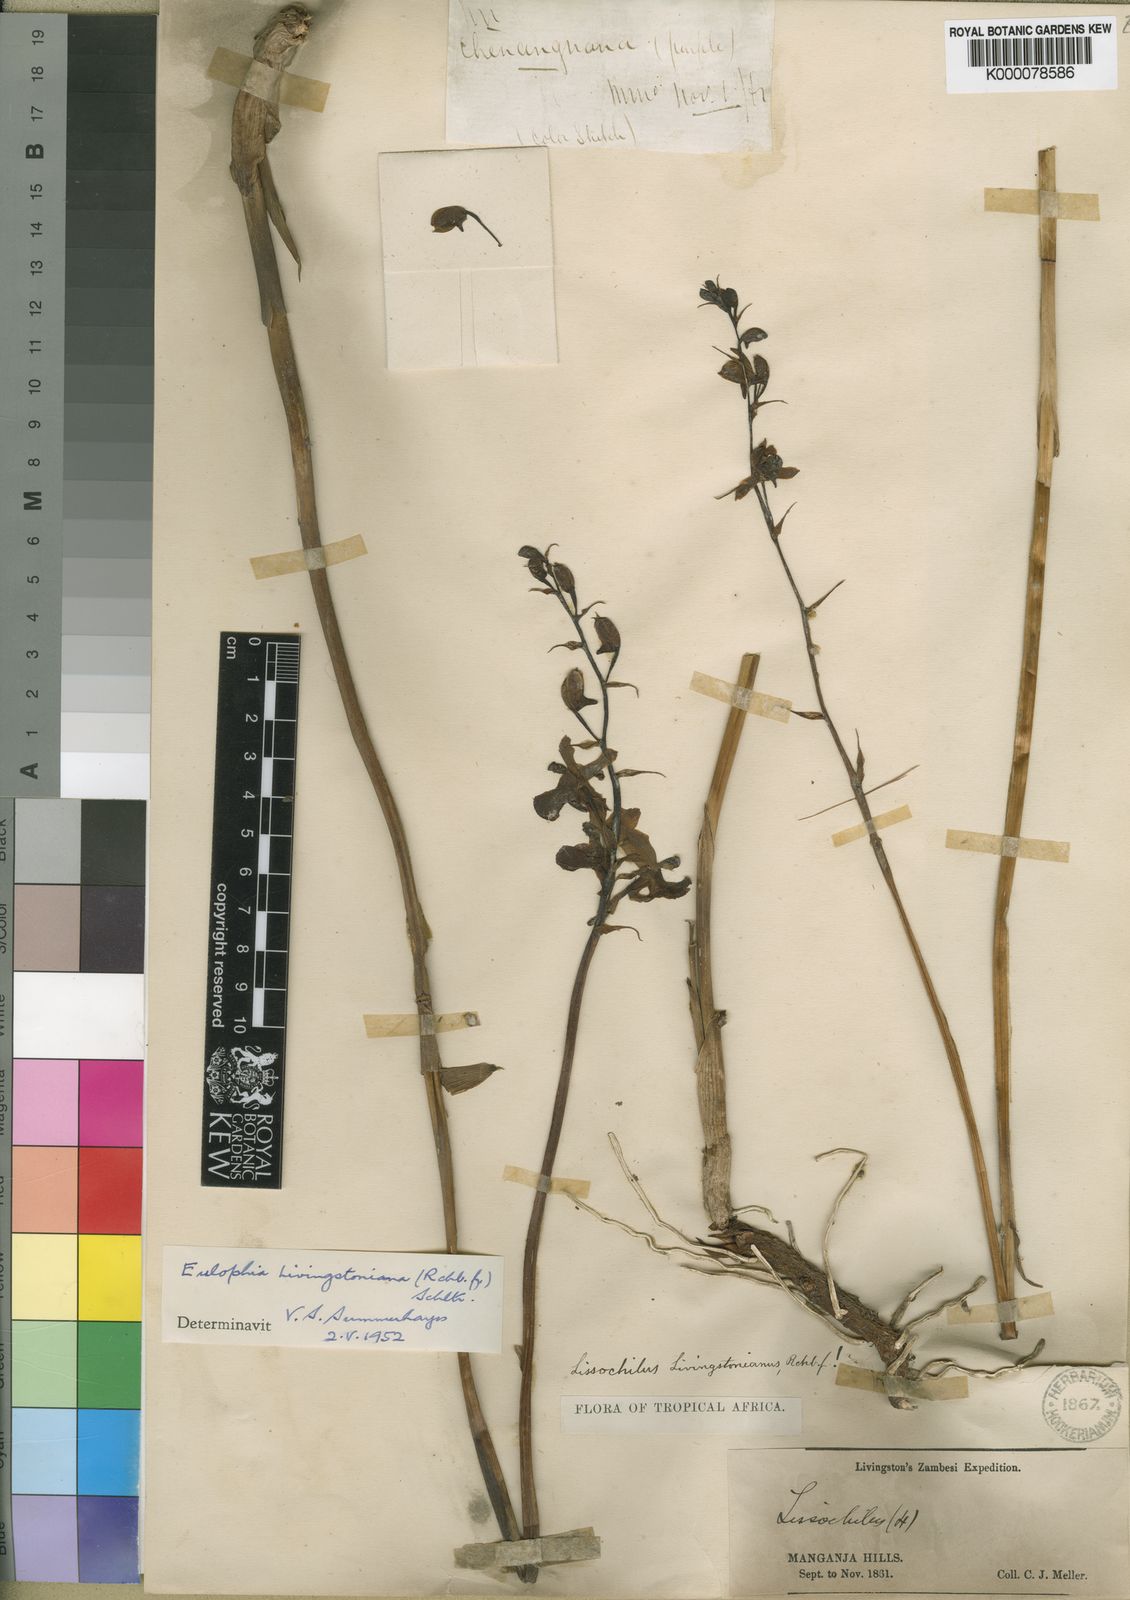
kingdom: Plantae
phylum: Tracheophyta
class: Liliopsida
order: Asparagales
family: Orchidaceae
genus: Eulophia
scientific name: Eulophia
